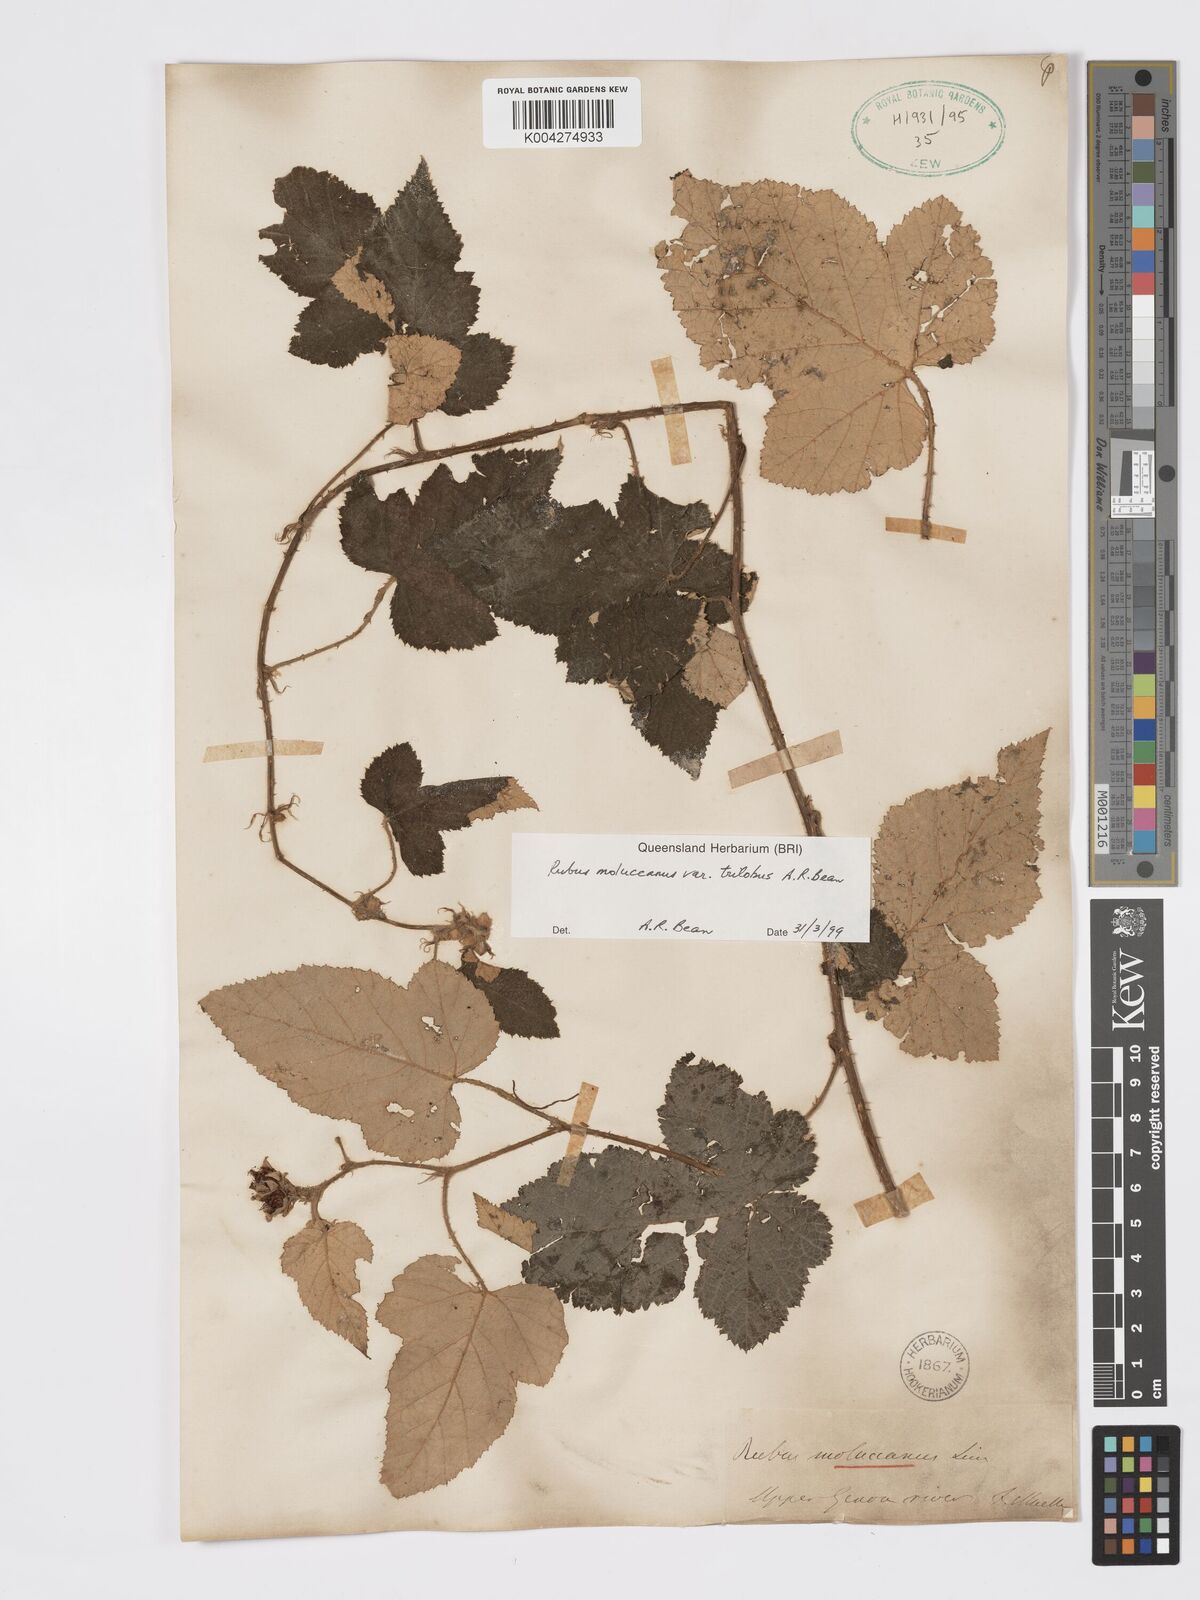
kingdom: Plantae
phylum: Tracheophyta
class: Magnoliopsida
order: Rosales
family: Rosaceae
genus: Rubus
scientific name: Rubus moluccanus
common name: Wild raspberry
